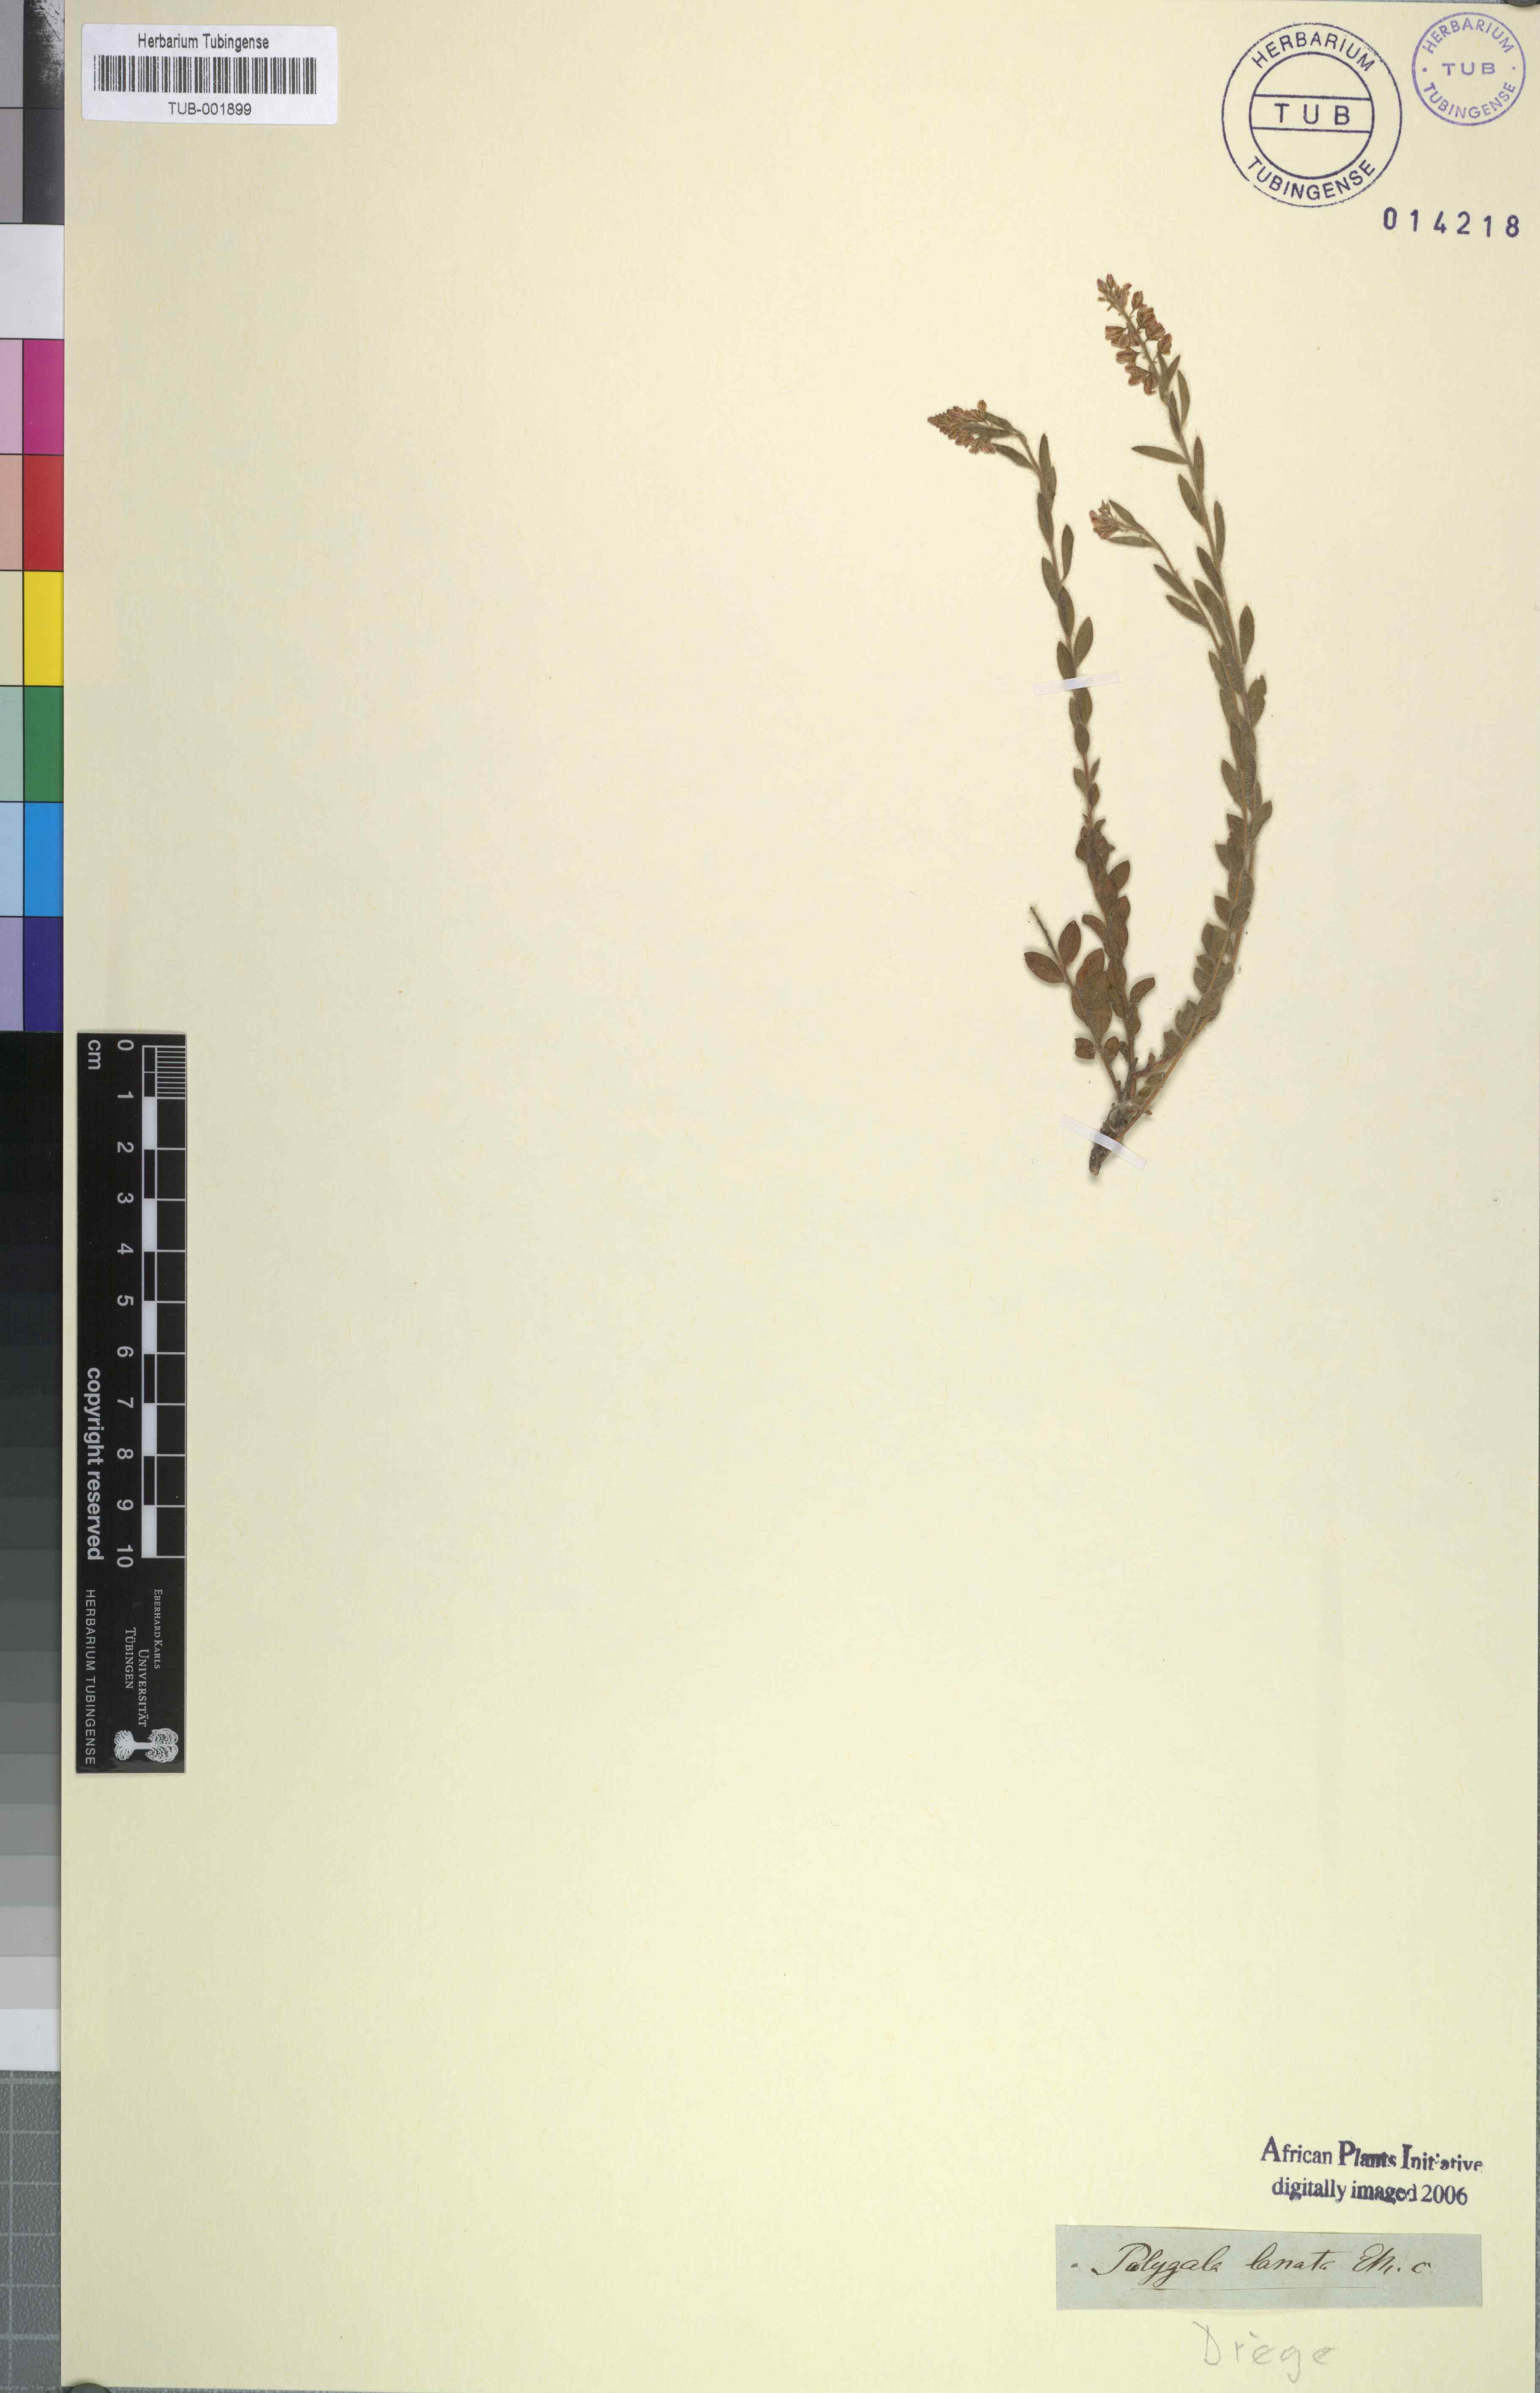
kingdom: Plantae
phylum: Tracheophyta
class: Magnoliopsida
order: Fabales
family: Polygalaceae
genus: Polygala
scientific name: Polygala hispida
